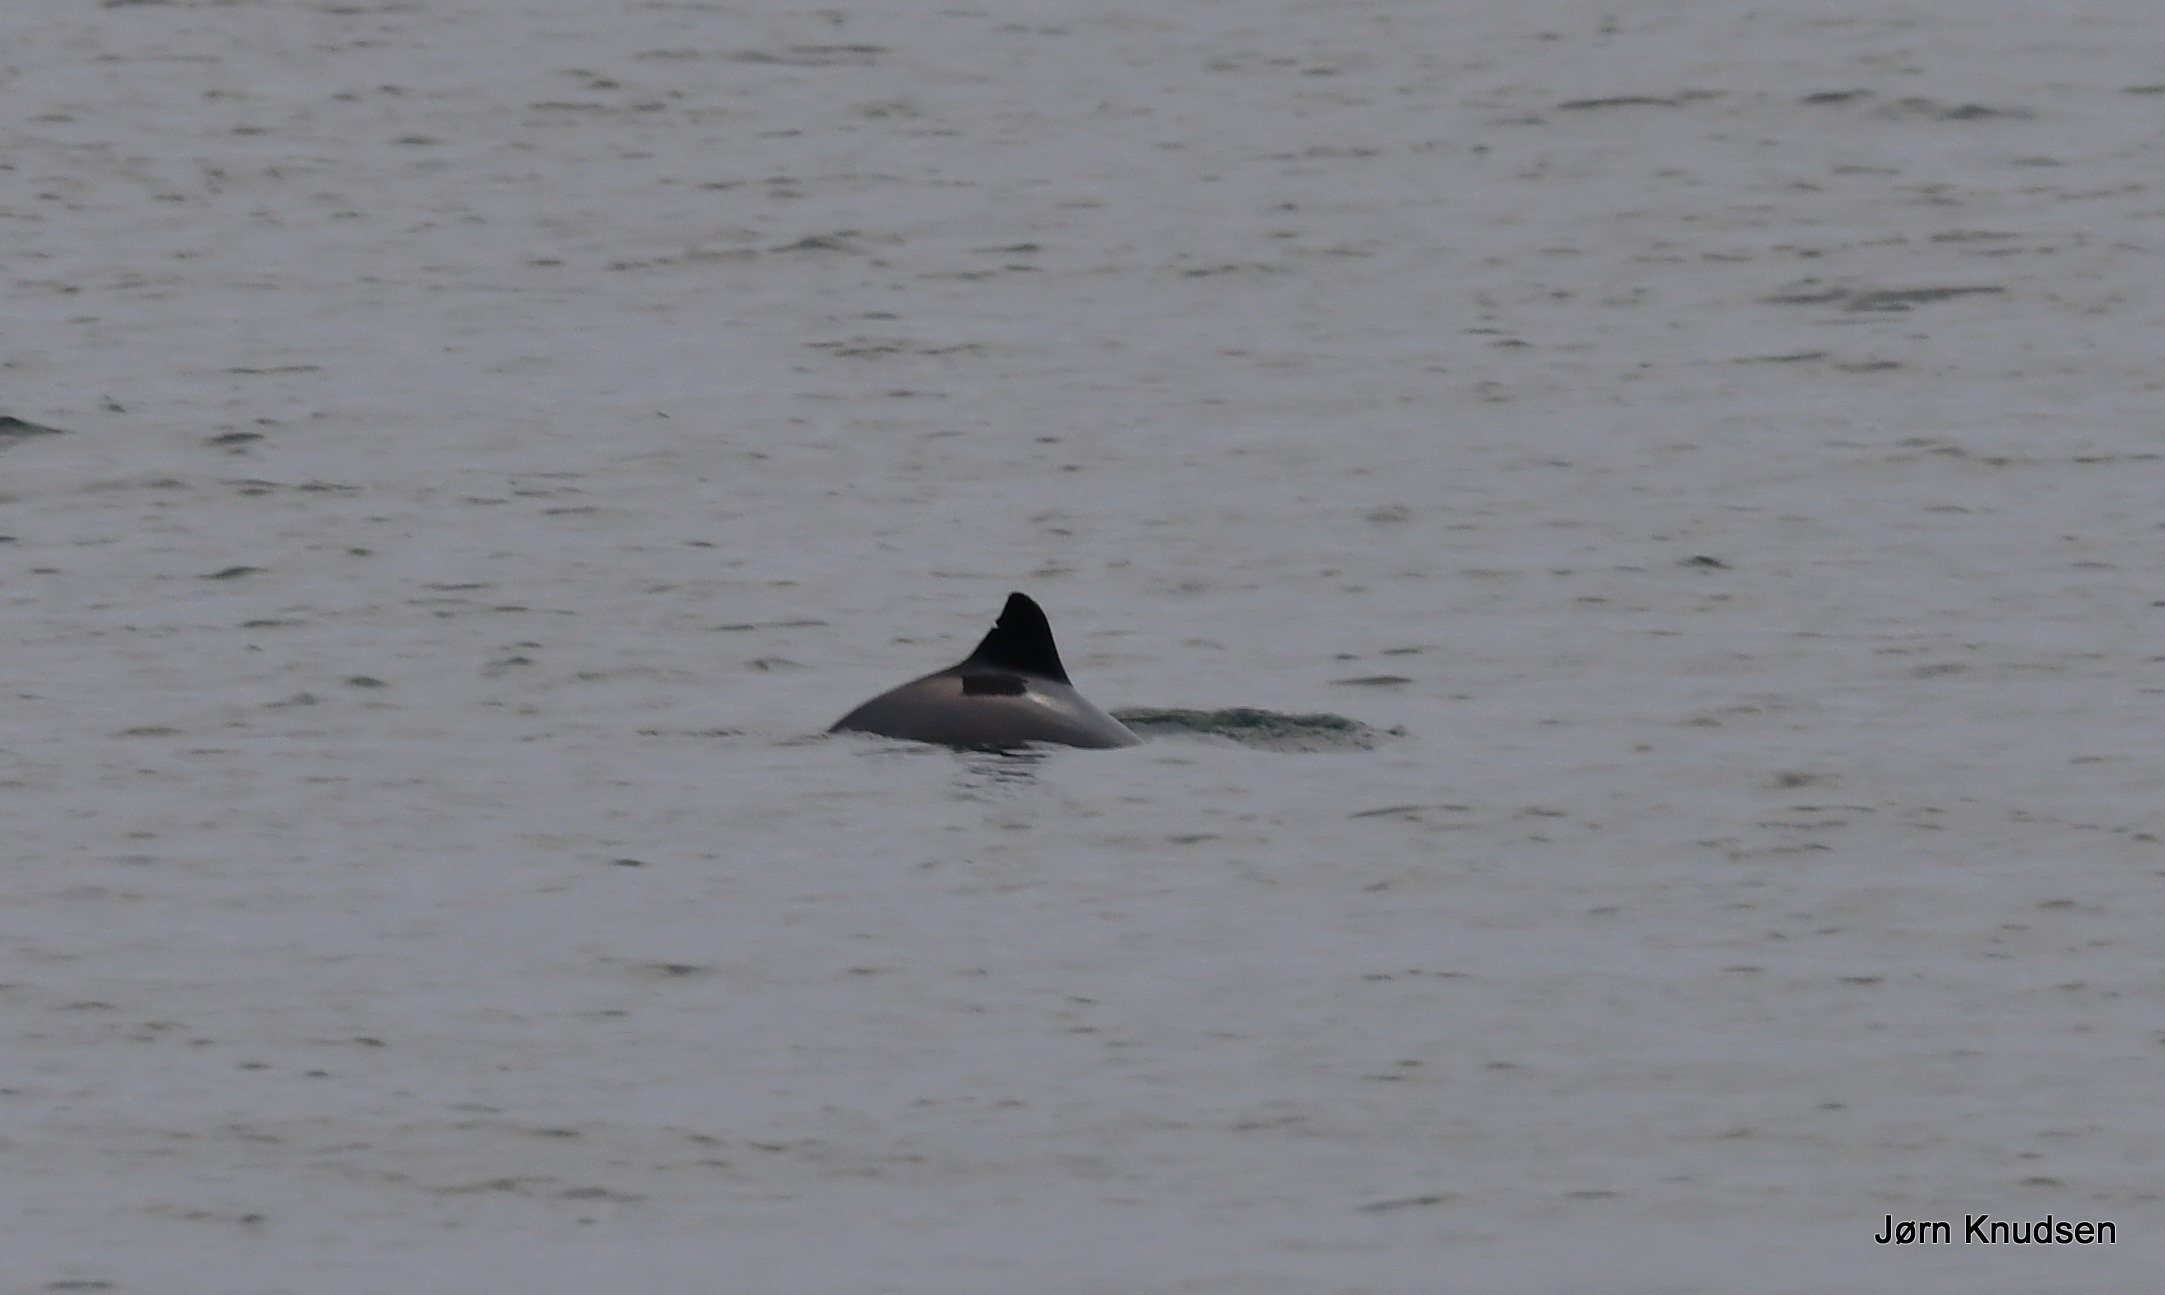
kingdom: Animalia
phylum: Chordata
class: Mammalia
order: Cetacea
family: Phocoenidae
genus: Phocoena
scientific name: Phocoena phocoena
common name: Marsvin
